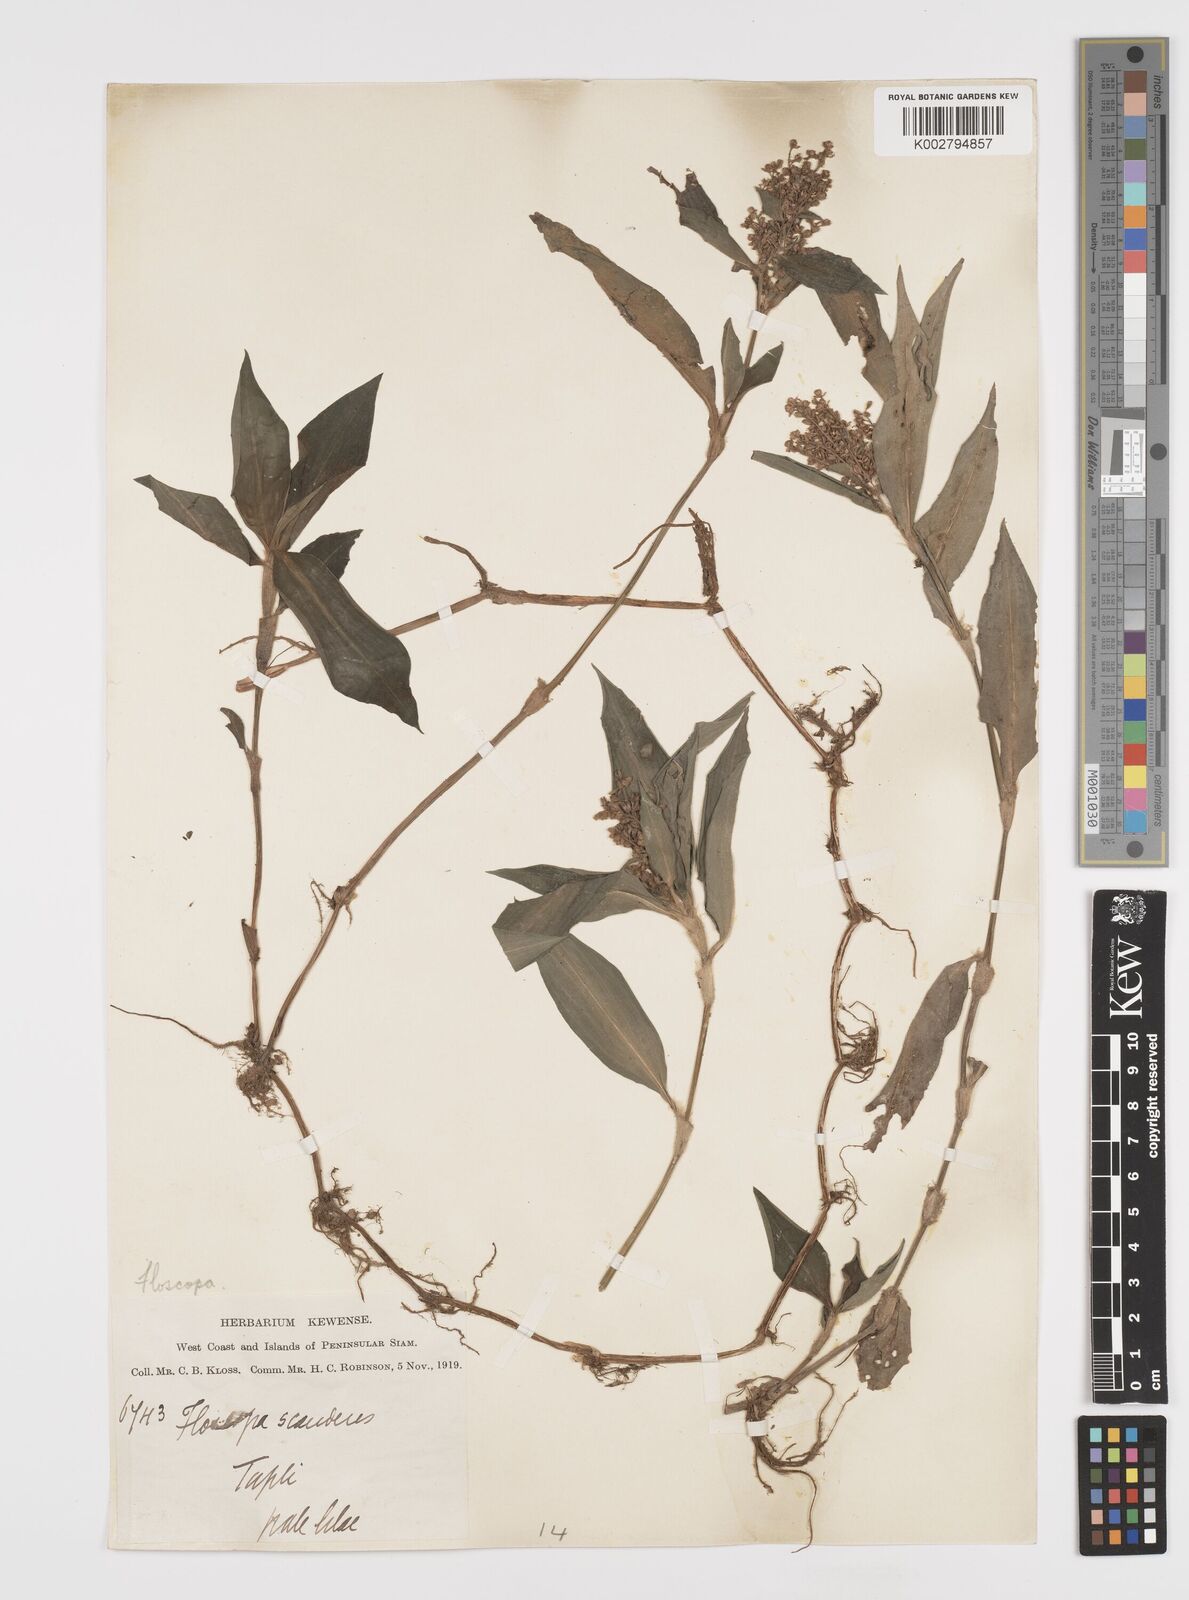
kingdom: Plantae
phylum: Tracheophyta
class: Liliopsida
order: Commelinales
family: Commelinaceae
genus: Floscopa
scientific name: Floscopa scandens
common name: Climbing flower cup
